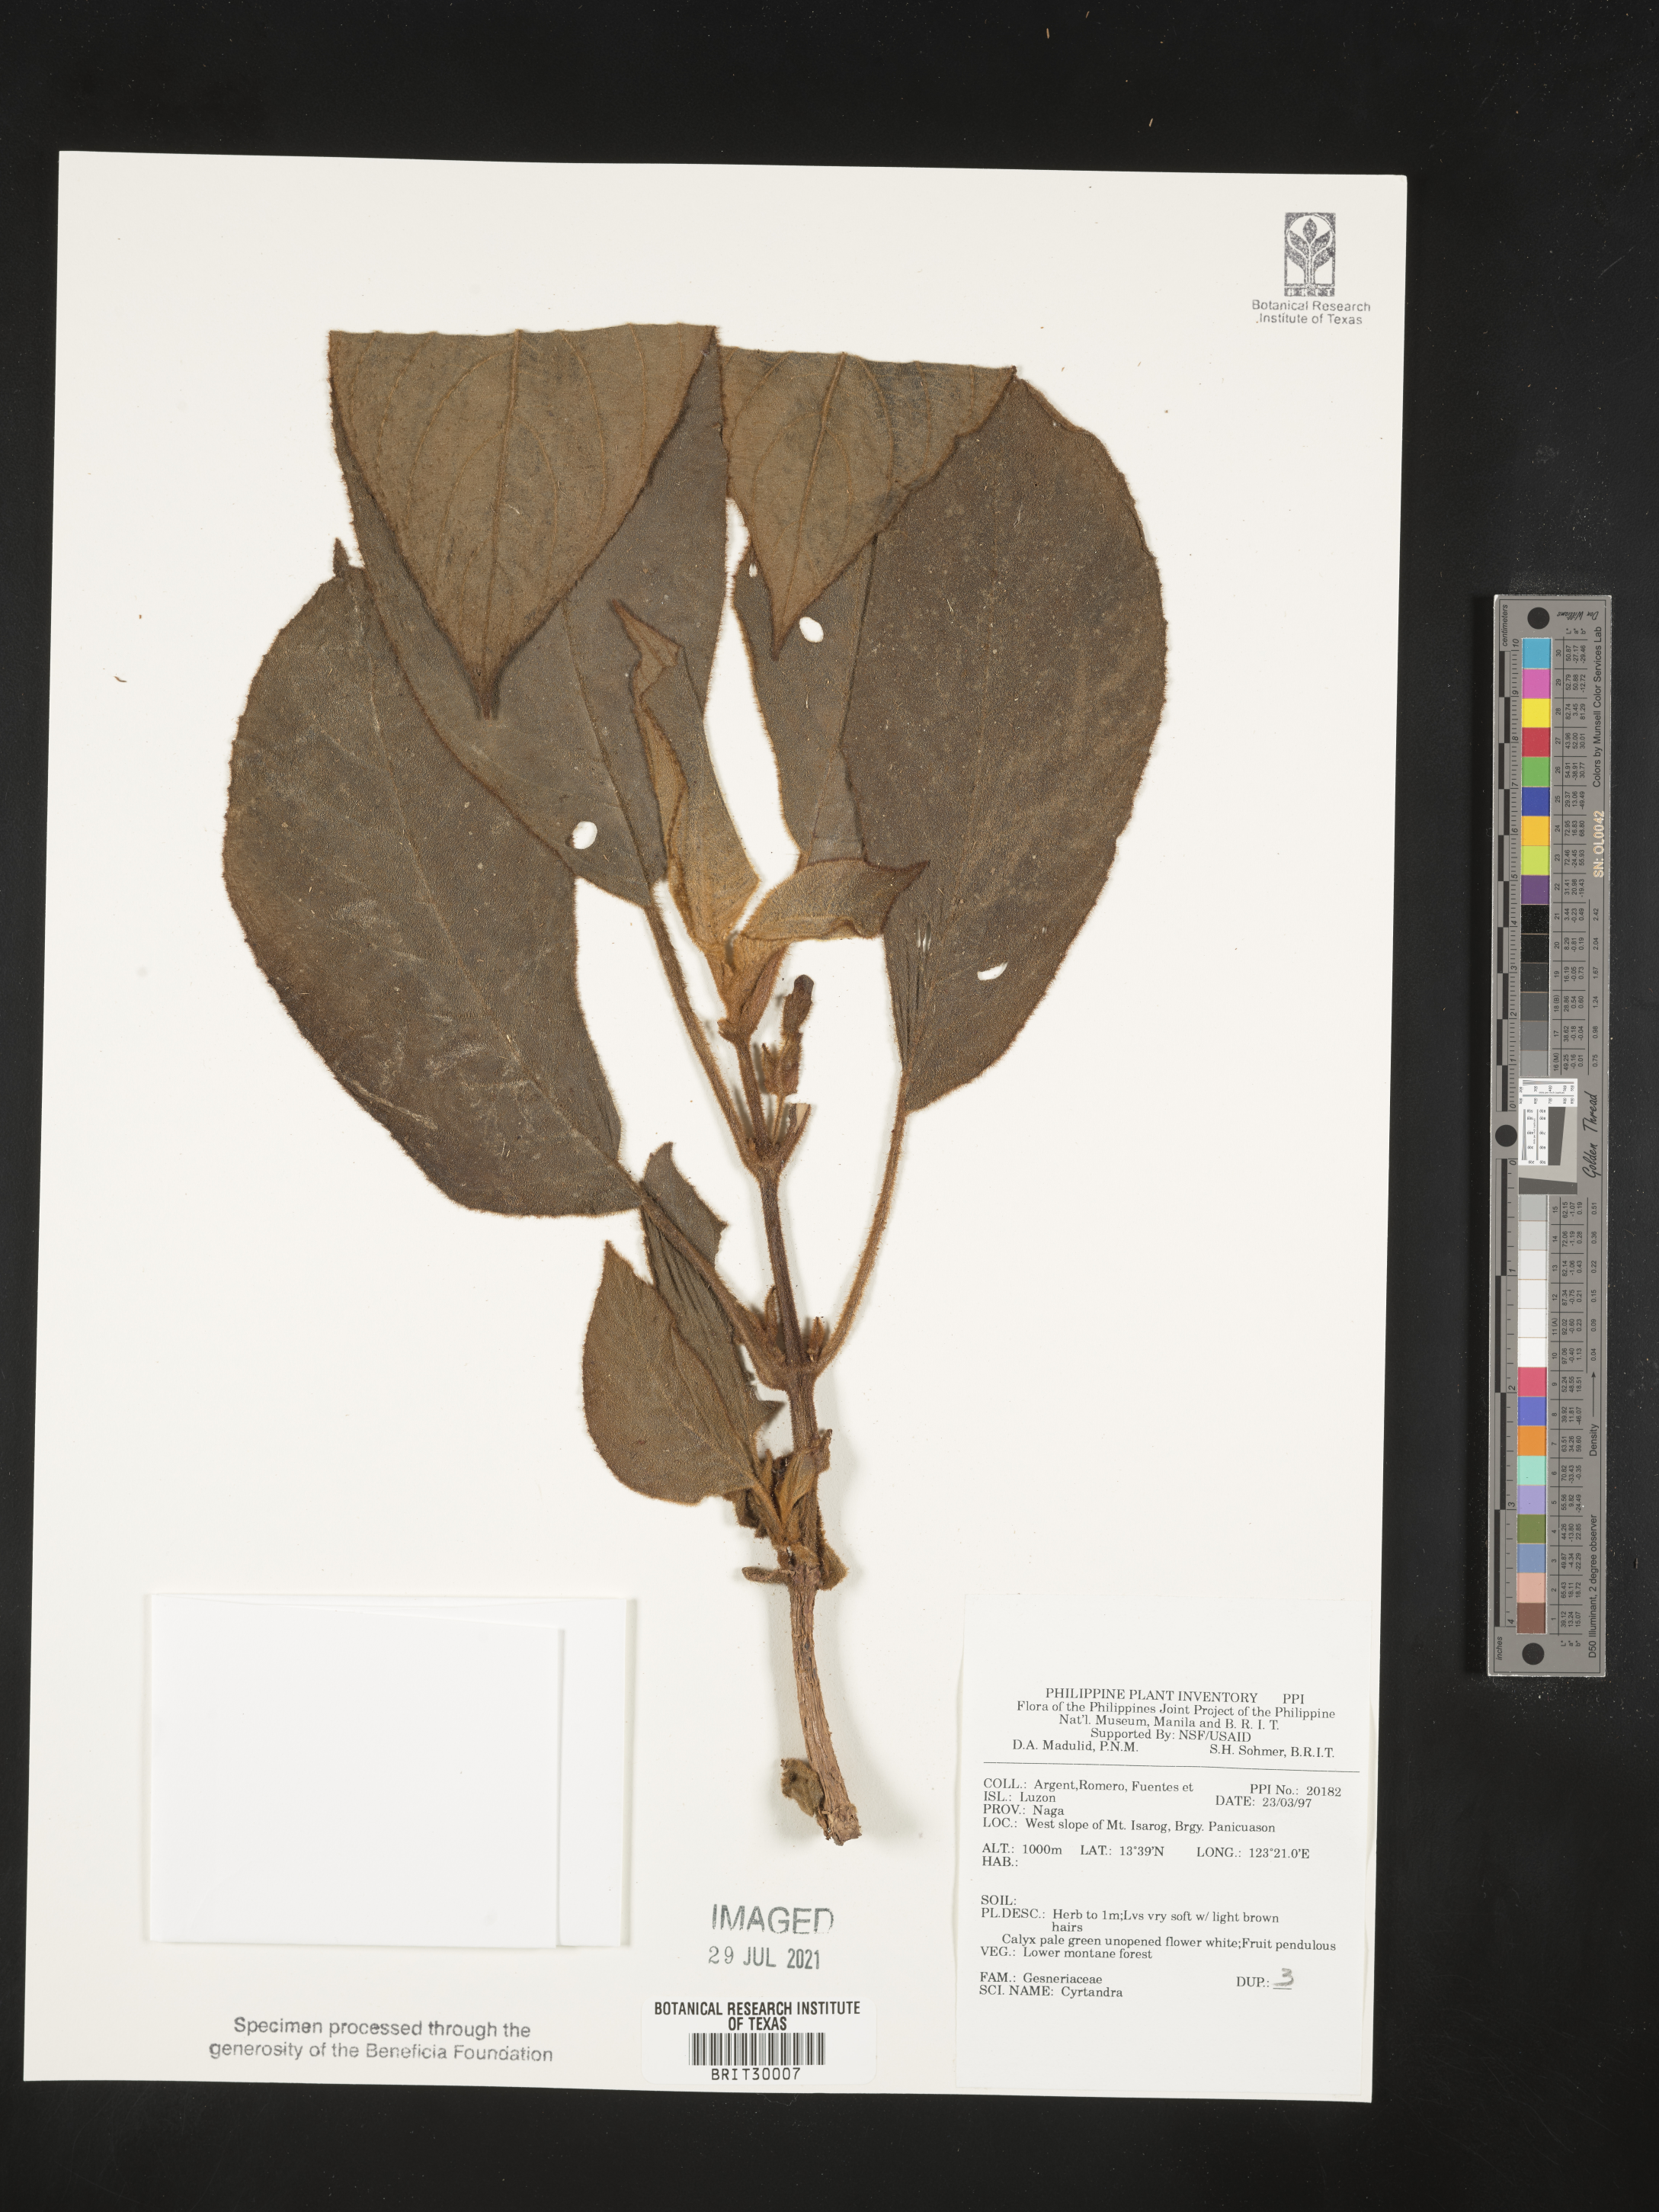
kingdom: Plantae
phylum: Tracheophyta
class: Magnoliopsida
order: Lamiales
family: Gesneriaceae
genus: Cyrtandra
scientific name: Cyrtandra
